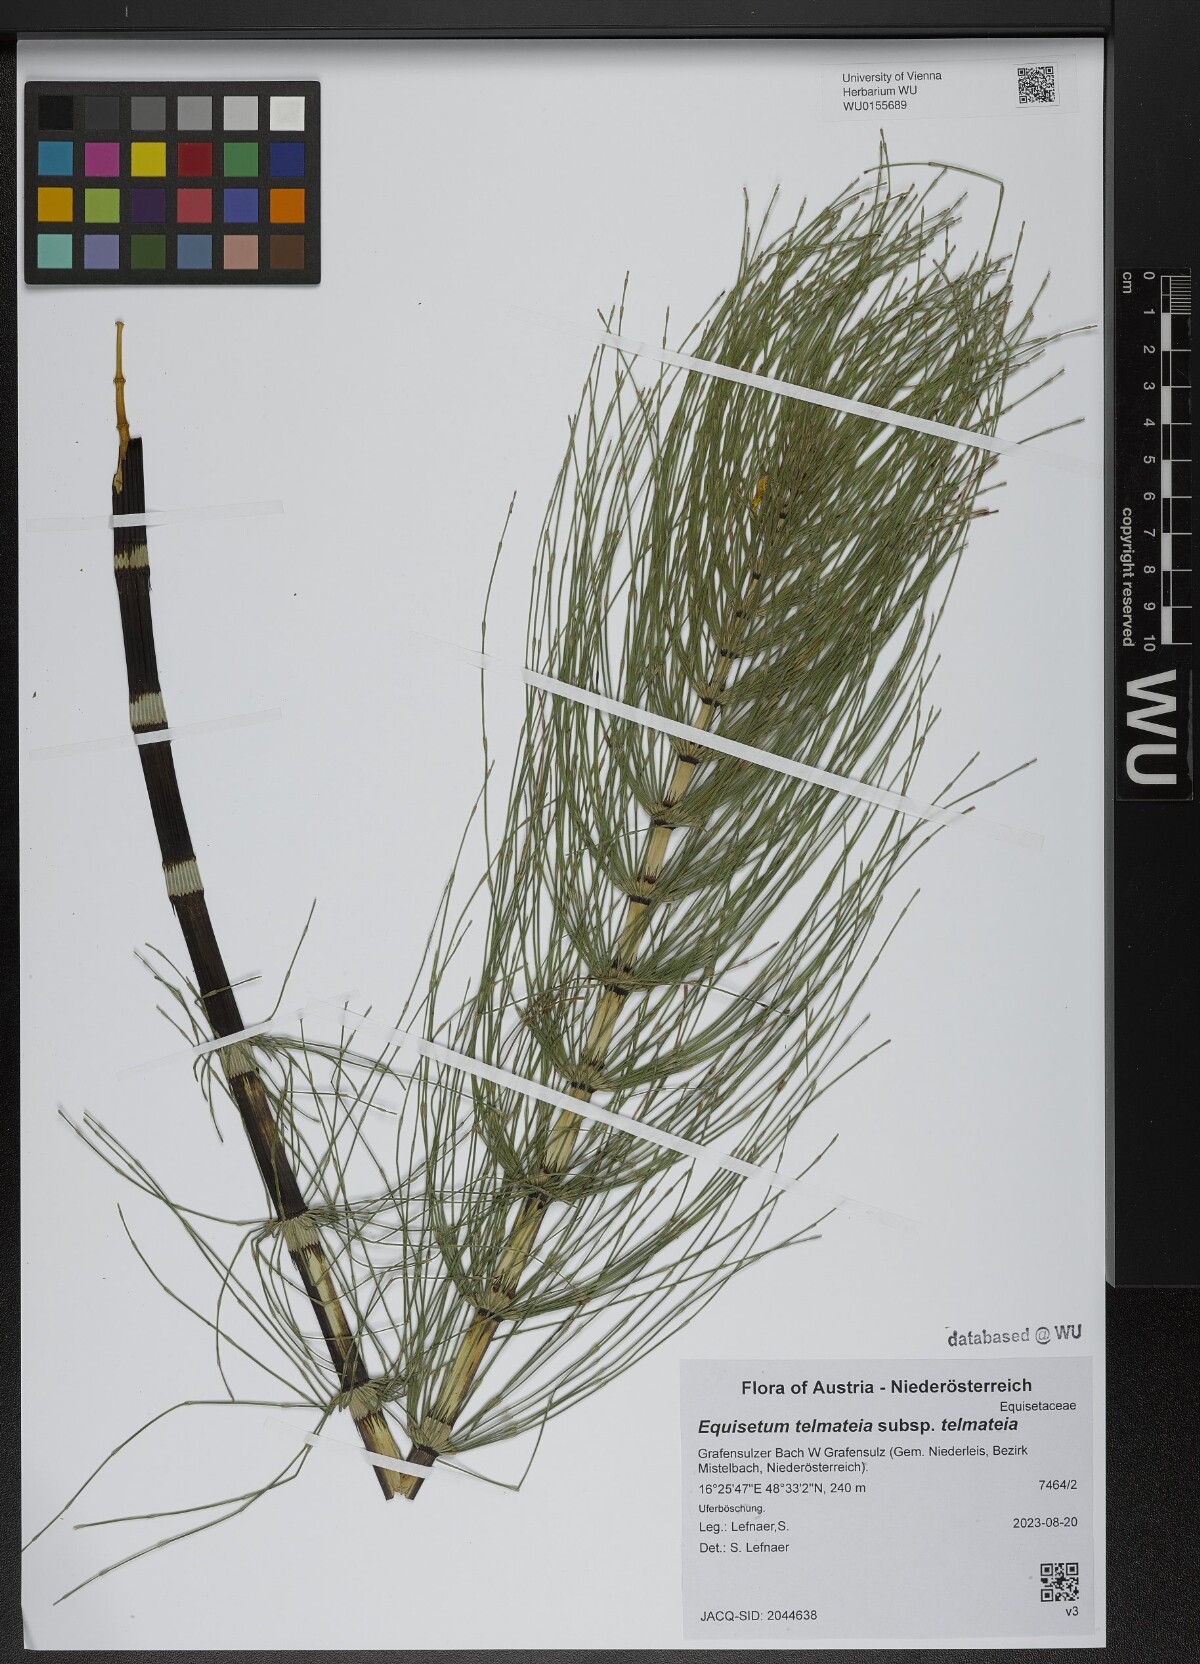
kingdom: Plantae
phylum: Tracheophyta
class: Polypodiopsida
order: Equisetales
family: Equisetaceae
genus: Equisetum
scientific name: Equisetum telmateia
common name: Great horsetail
